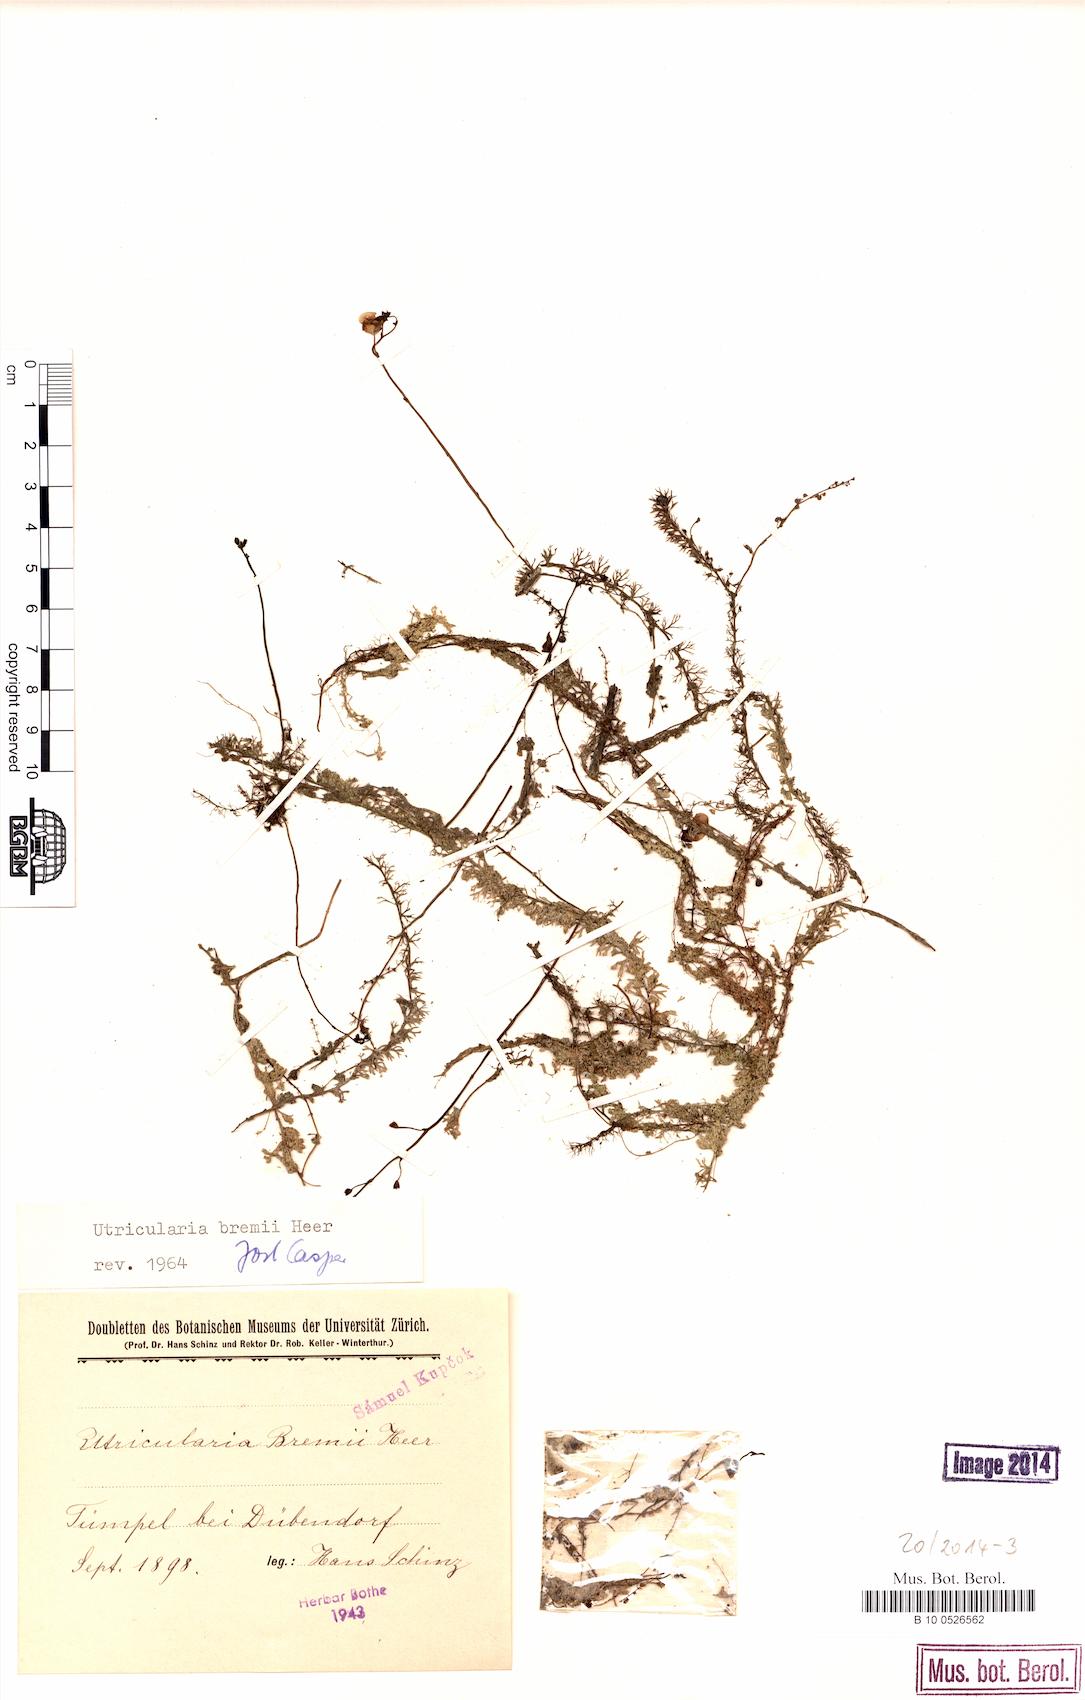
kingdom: Plantae
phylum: Tracheophyta
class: Magnoliopsida
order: Lamiales
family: Lentibulariaceae
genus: Utricularia
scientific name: Utricularia bremii
